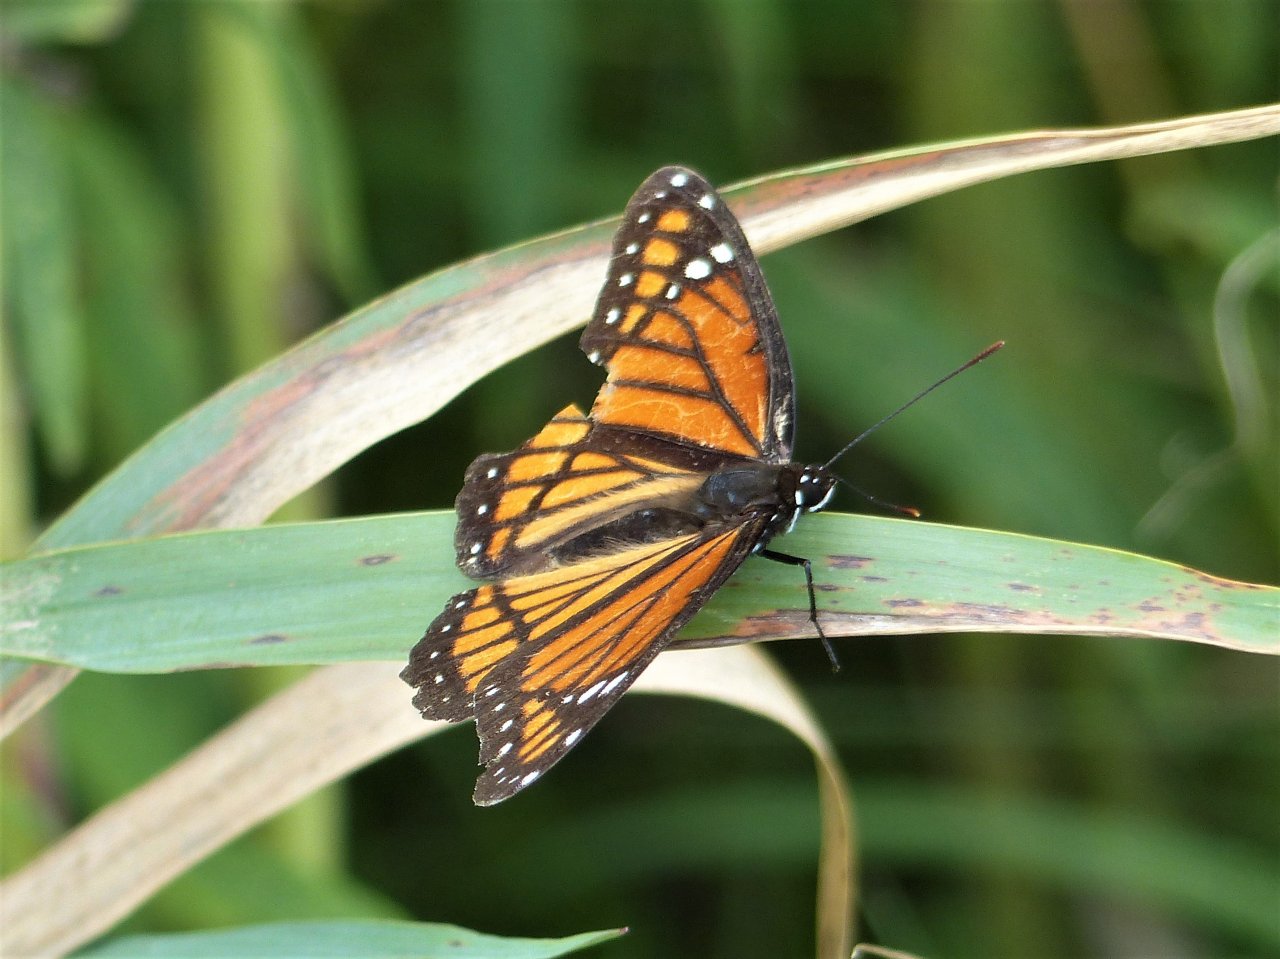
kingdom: Animalia
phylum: Arthropoda
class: Insecta
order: Lepidoptera
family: Nymphalidae
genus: Limenitis
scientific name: Limenitis archippus
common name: Viceroy
